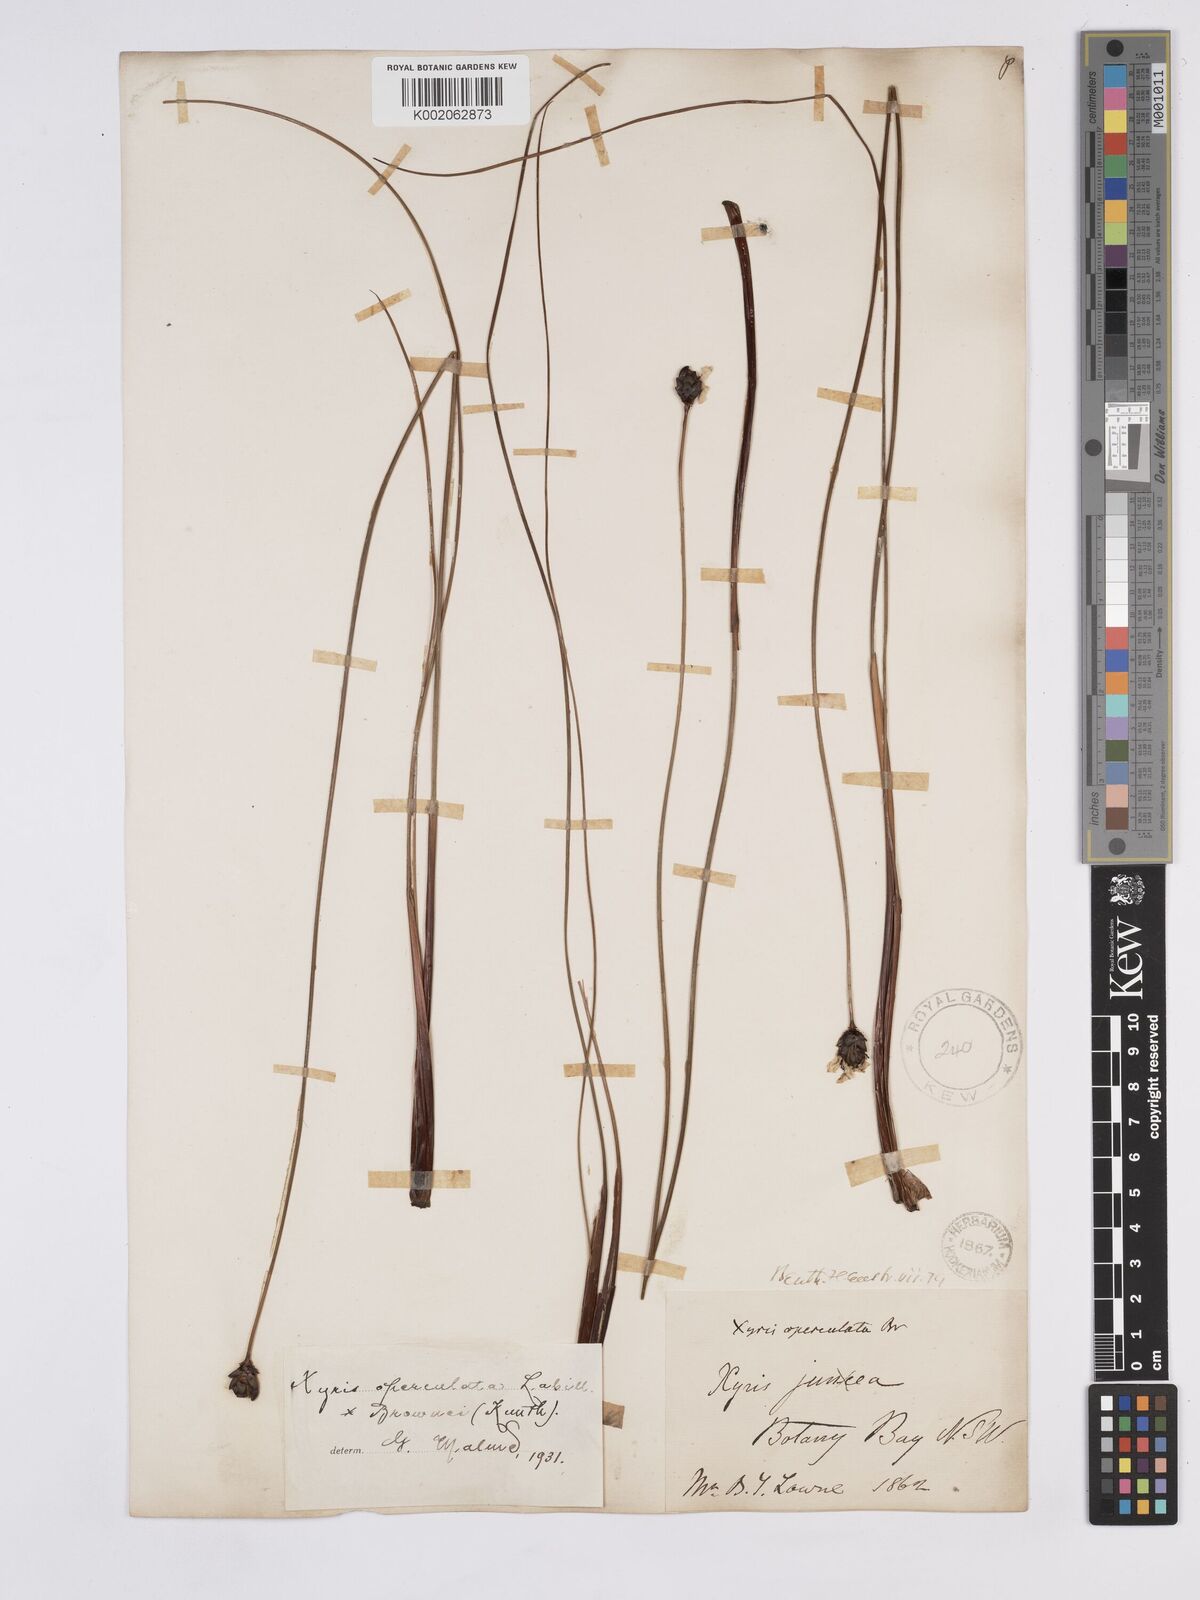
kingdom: Plantae
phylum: Tracheophyta
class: Liliopsida
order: Poales
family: Xyridaceae
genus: Xyris
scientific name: Xyris operculata
